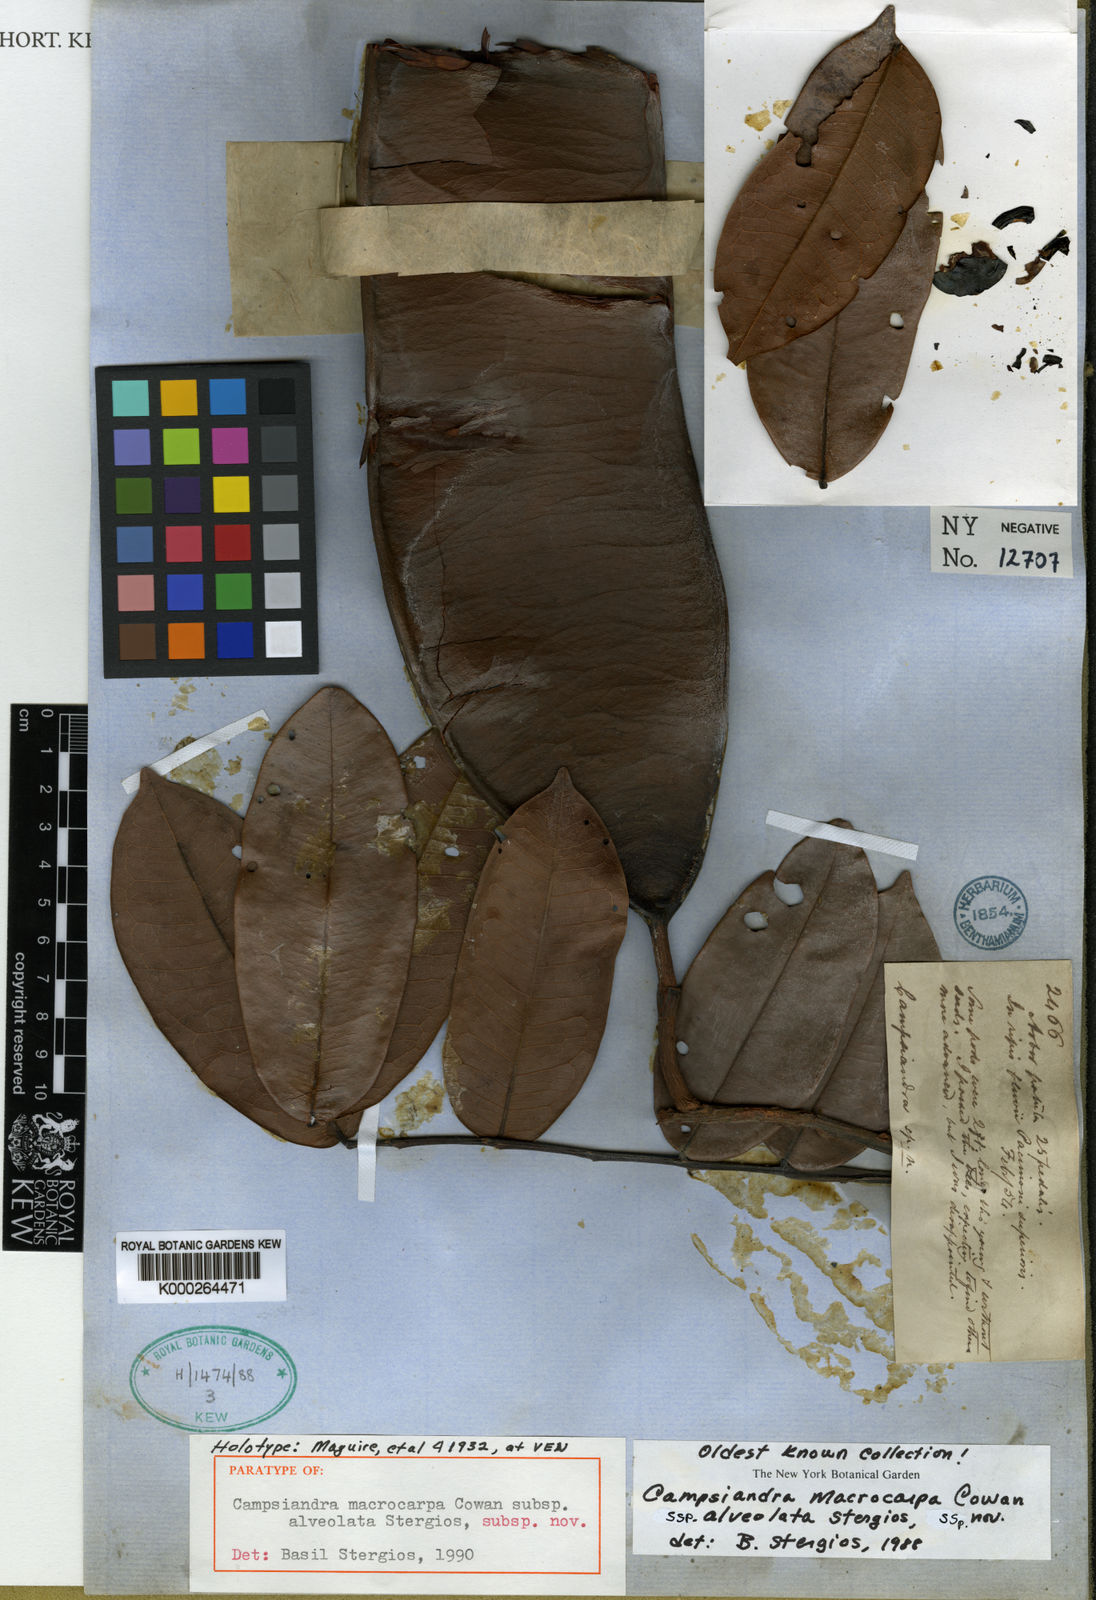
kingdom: Plantae
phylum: Tracheophyta
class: Magnoliopsida
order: Fabales
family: Fabaceae
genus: Campsiandra
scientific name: Campsiandra macrocarpa
